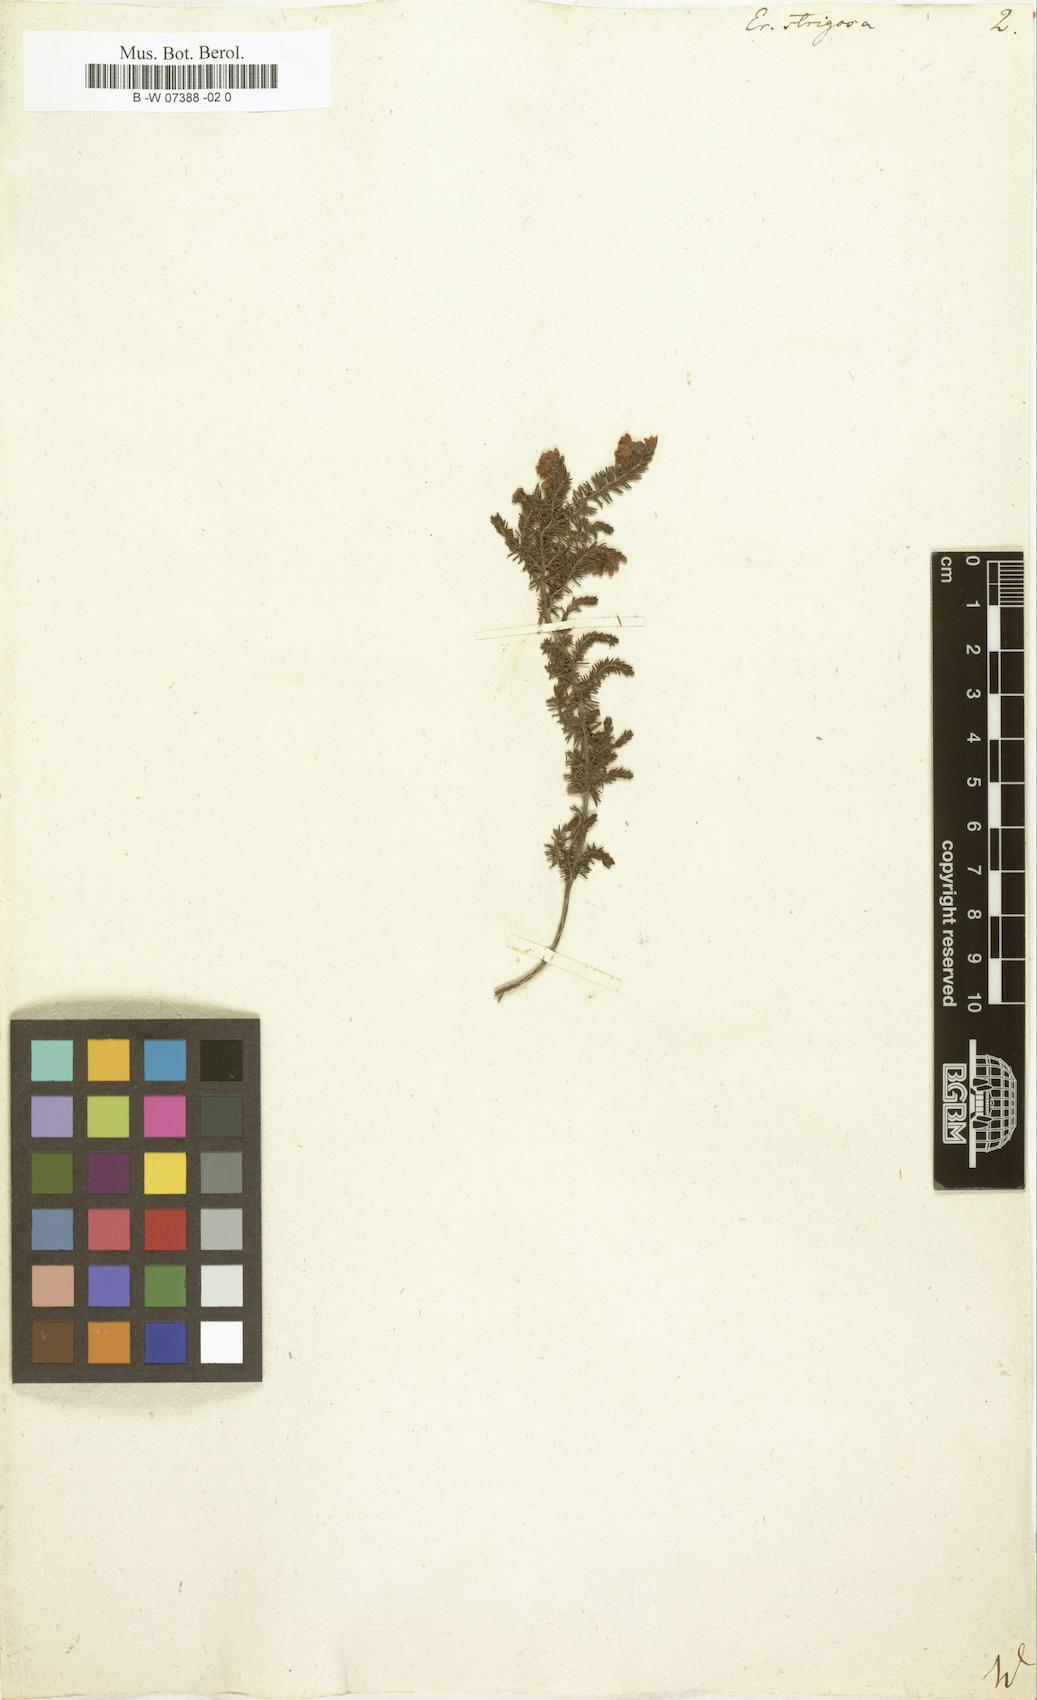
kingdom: Plantae
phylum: Tracheophyta
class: Magnoliopsida
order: Ericales
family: Ericaceae
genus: Erica
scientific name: Erica strigosa
